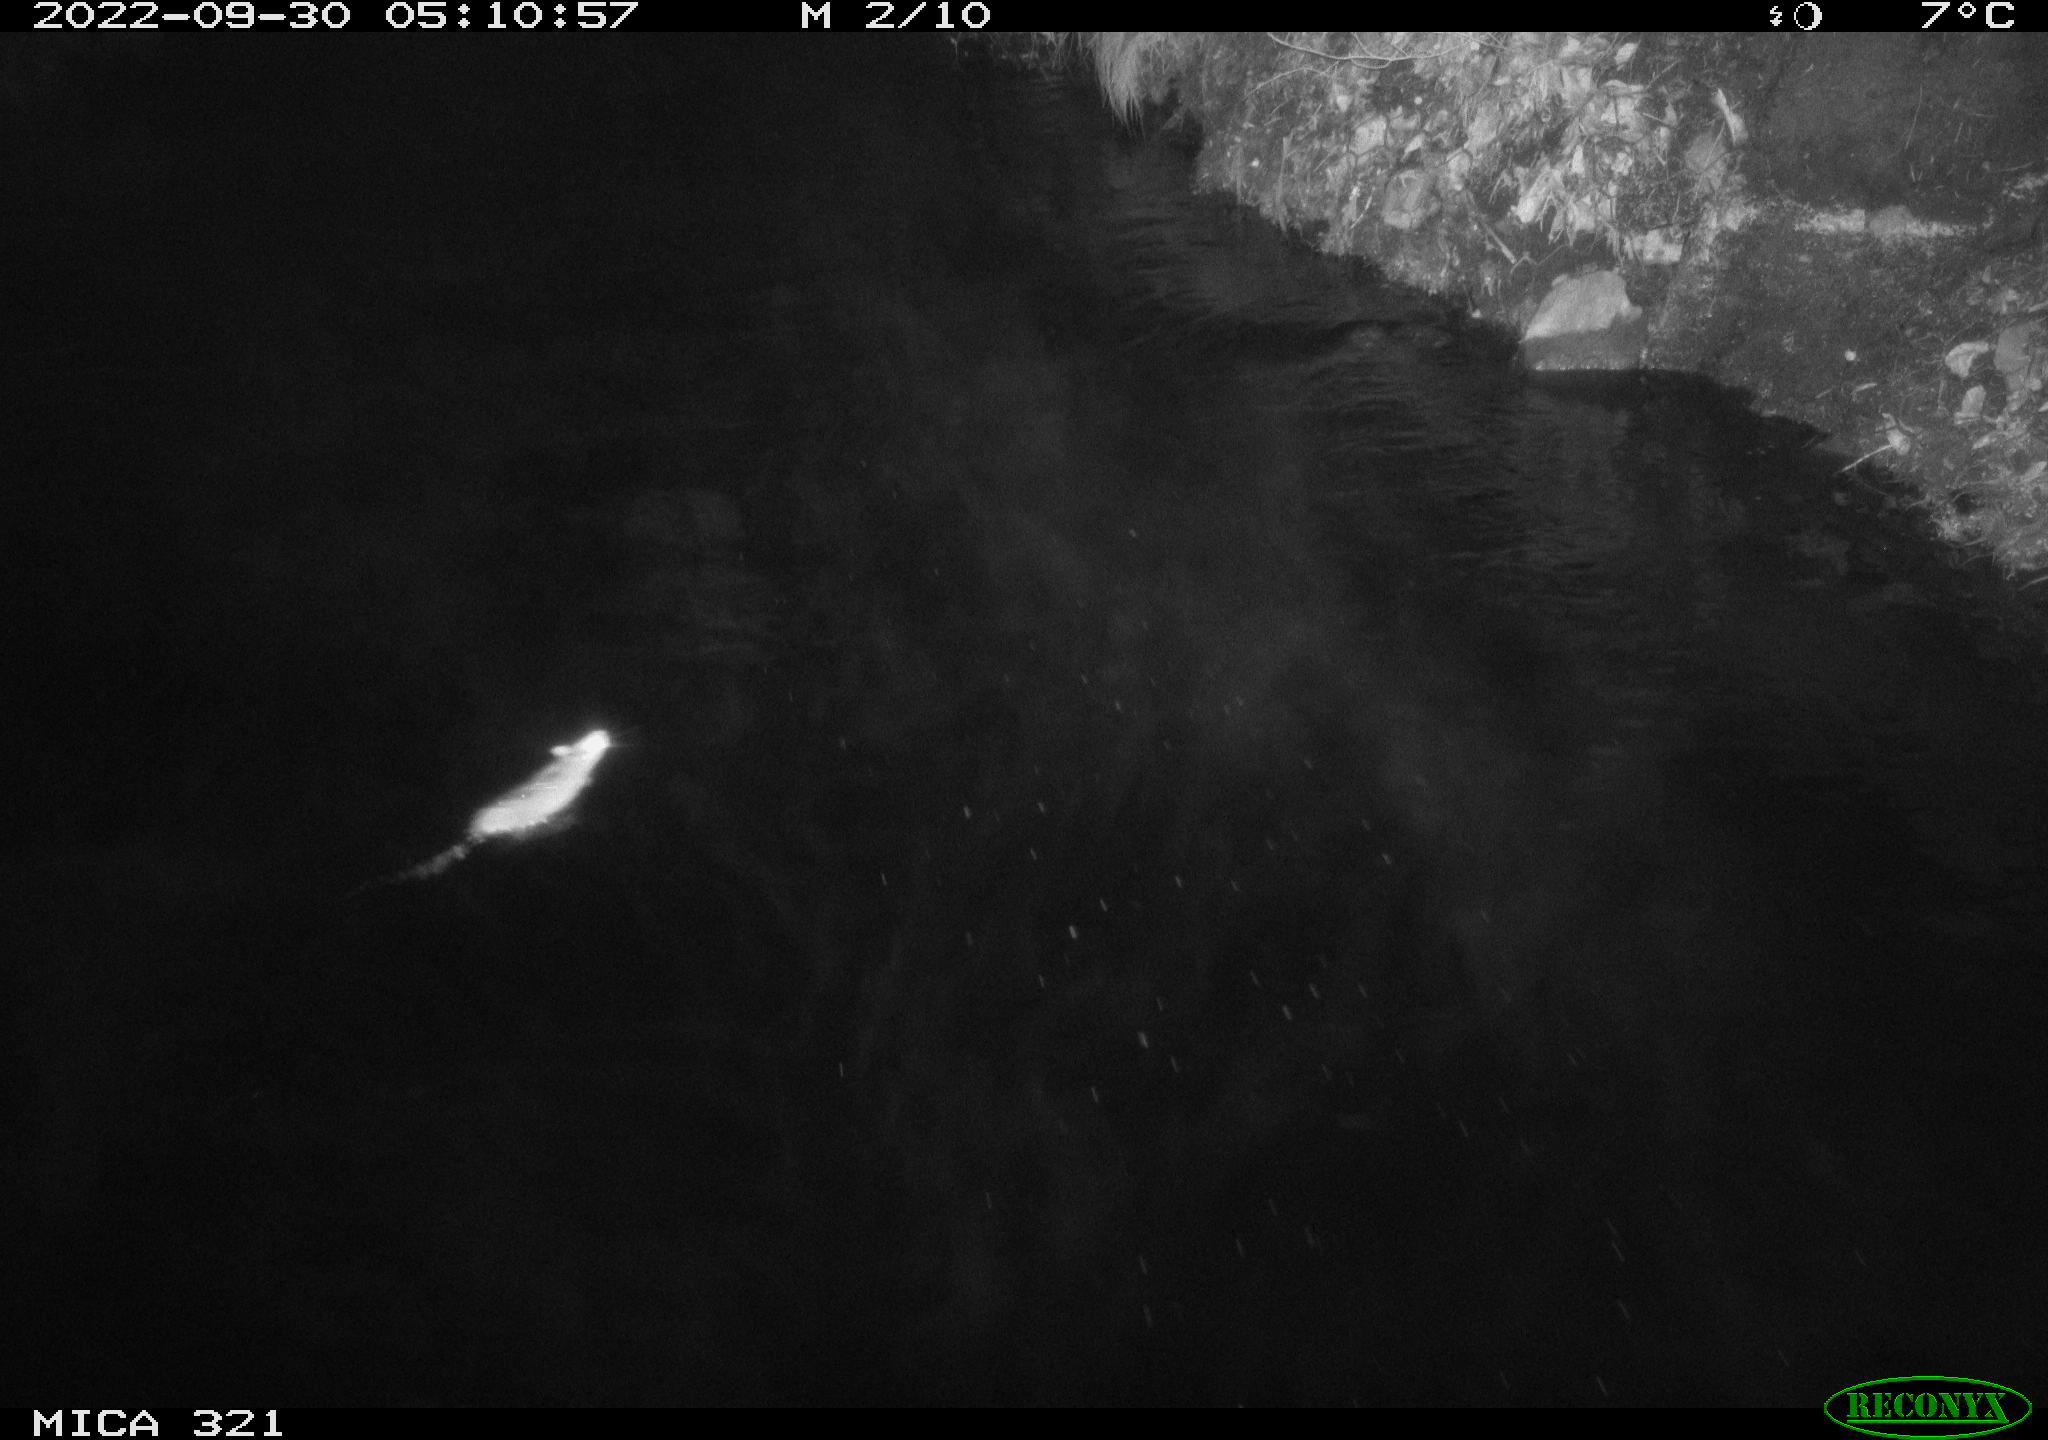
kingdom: Animalia
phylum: Chordata
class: Mammalia
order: Rodentia
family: Muridae
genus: Rattus
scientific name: Rattus norvegicus
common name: Brown rat
